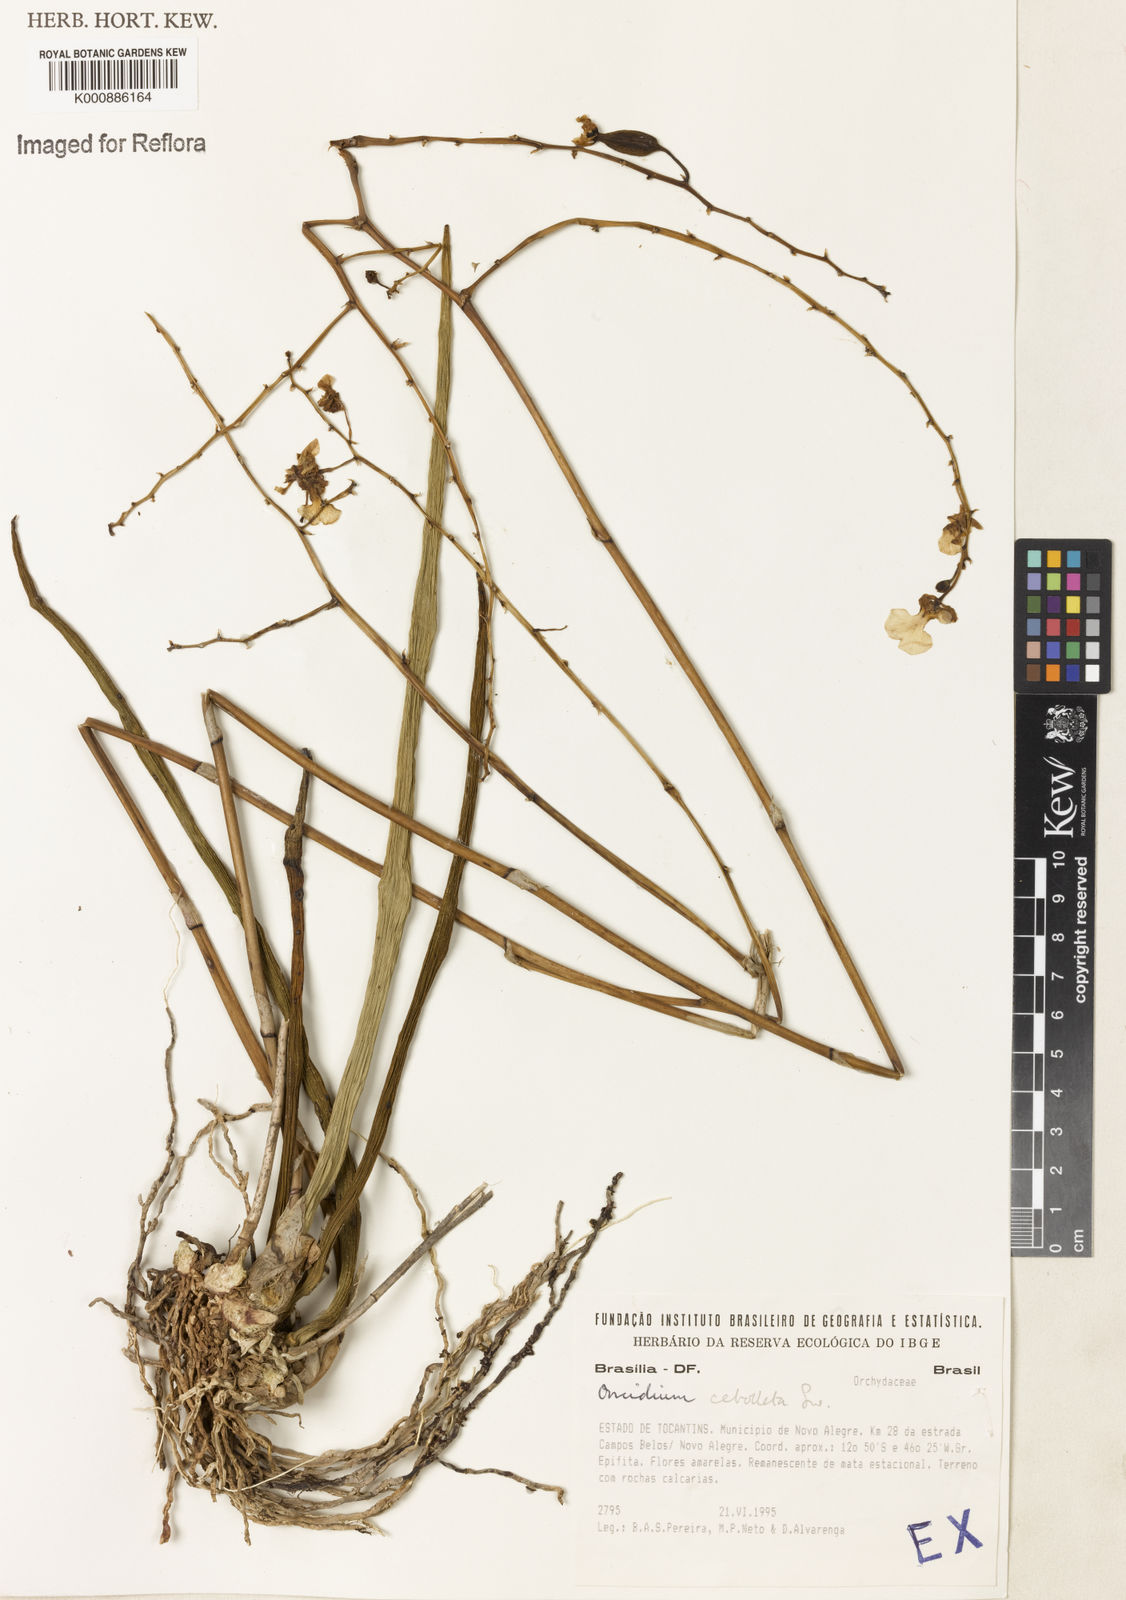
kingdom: Plantae
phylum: Tracheophyta
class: Liliopsida
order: Asparagales
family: Orchidaceae
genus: Trichocentrum
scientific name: Trichocentrum cebolleta
